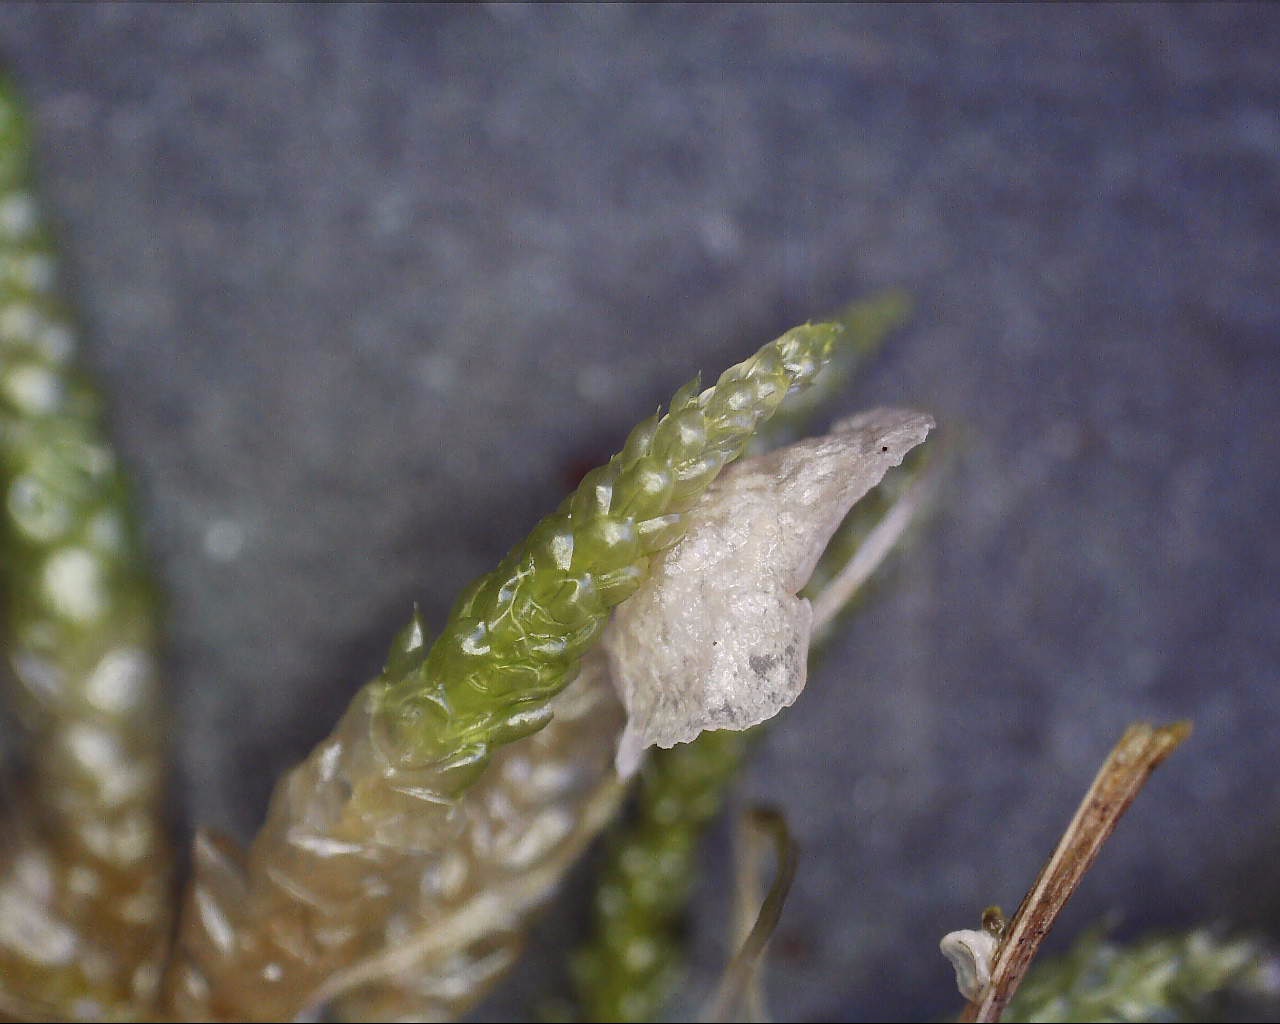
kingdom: Fungi
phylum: Basidiomycota
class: Agaricomycetes
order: Agaricales
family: Hygrophoraceae
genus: Arrhenia
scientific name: Arrhenia retiruga
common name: lille fontænehat
